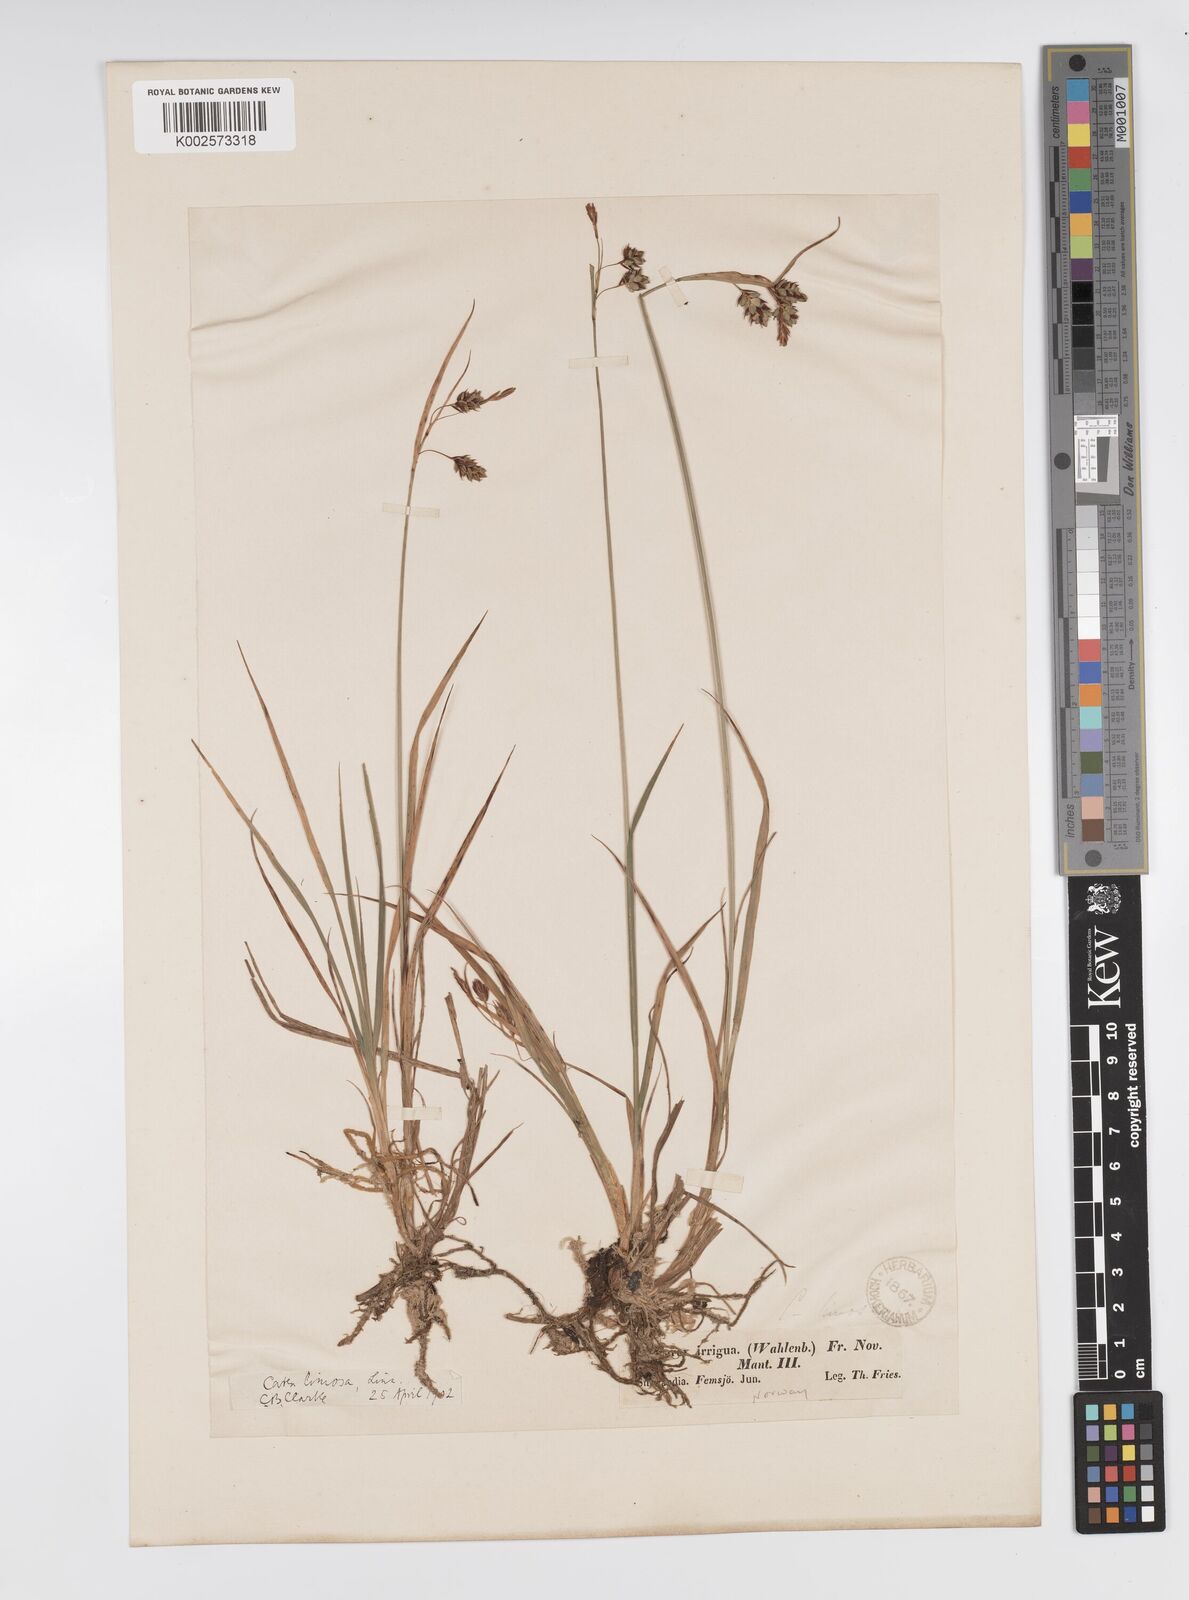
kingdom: Plantae
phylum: Tracheophyta
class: Liliopsida
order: Poales
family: Cyperaceae
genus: Carex
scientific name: Carex magellanica
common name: Bog sedge
